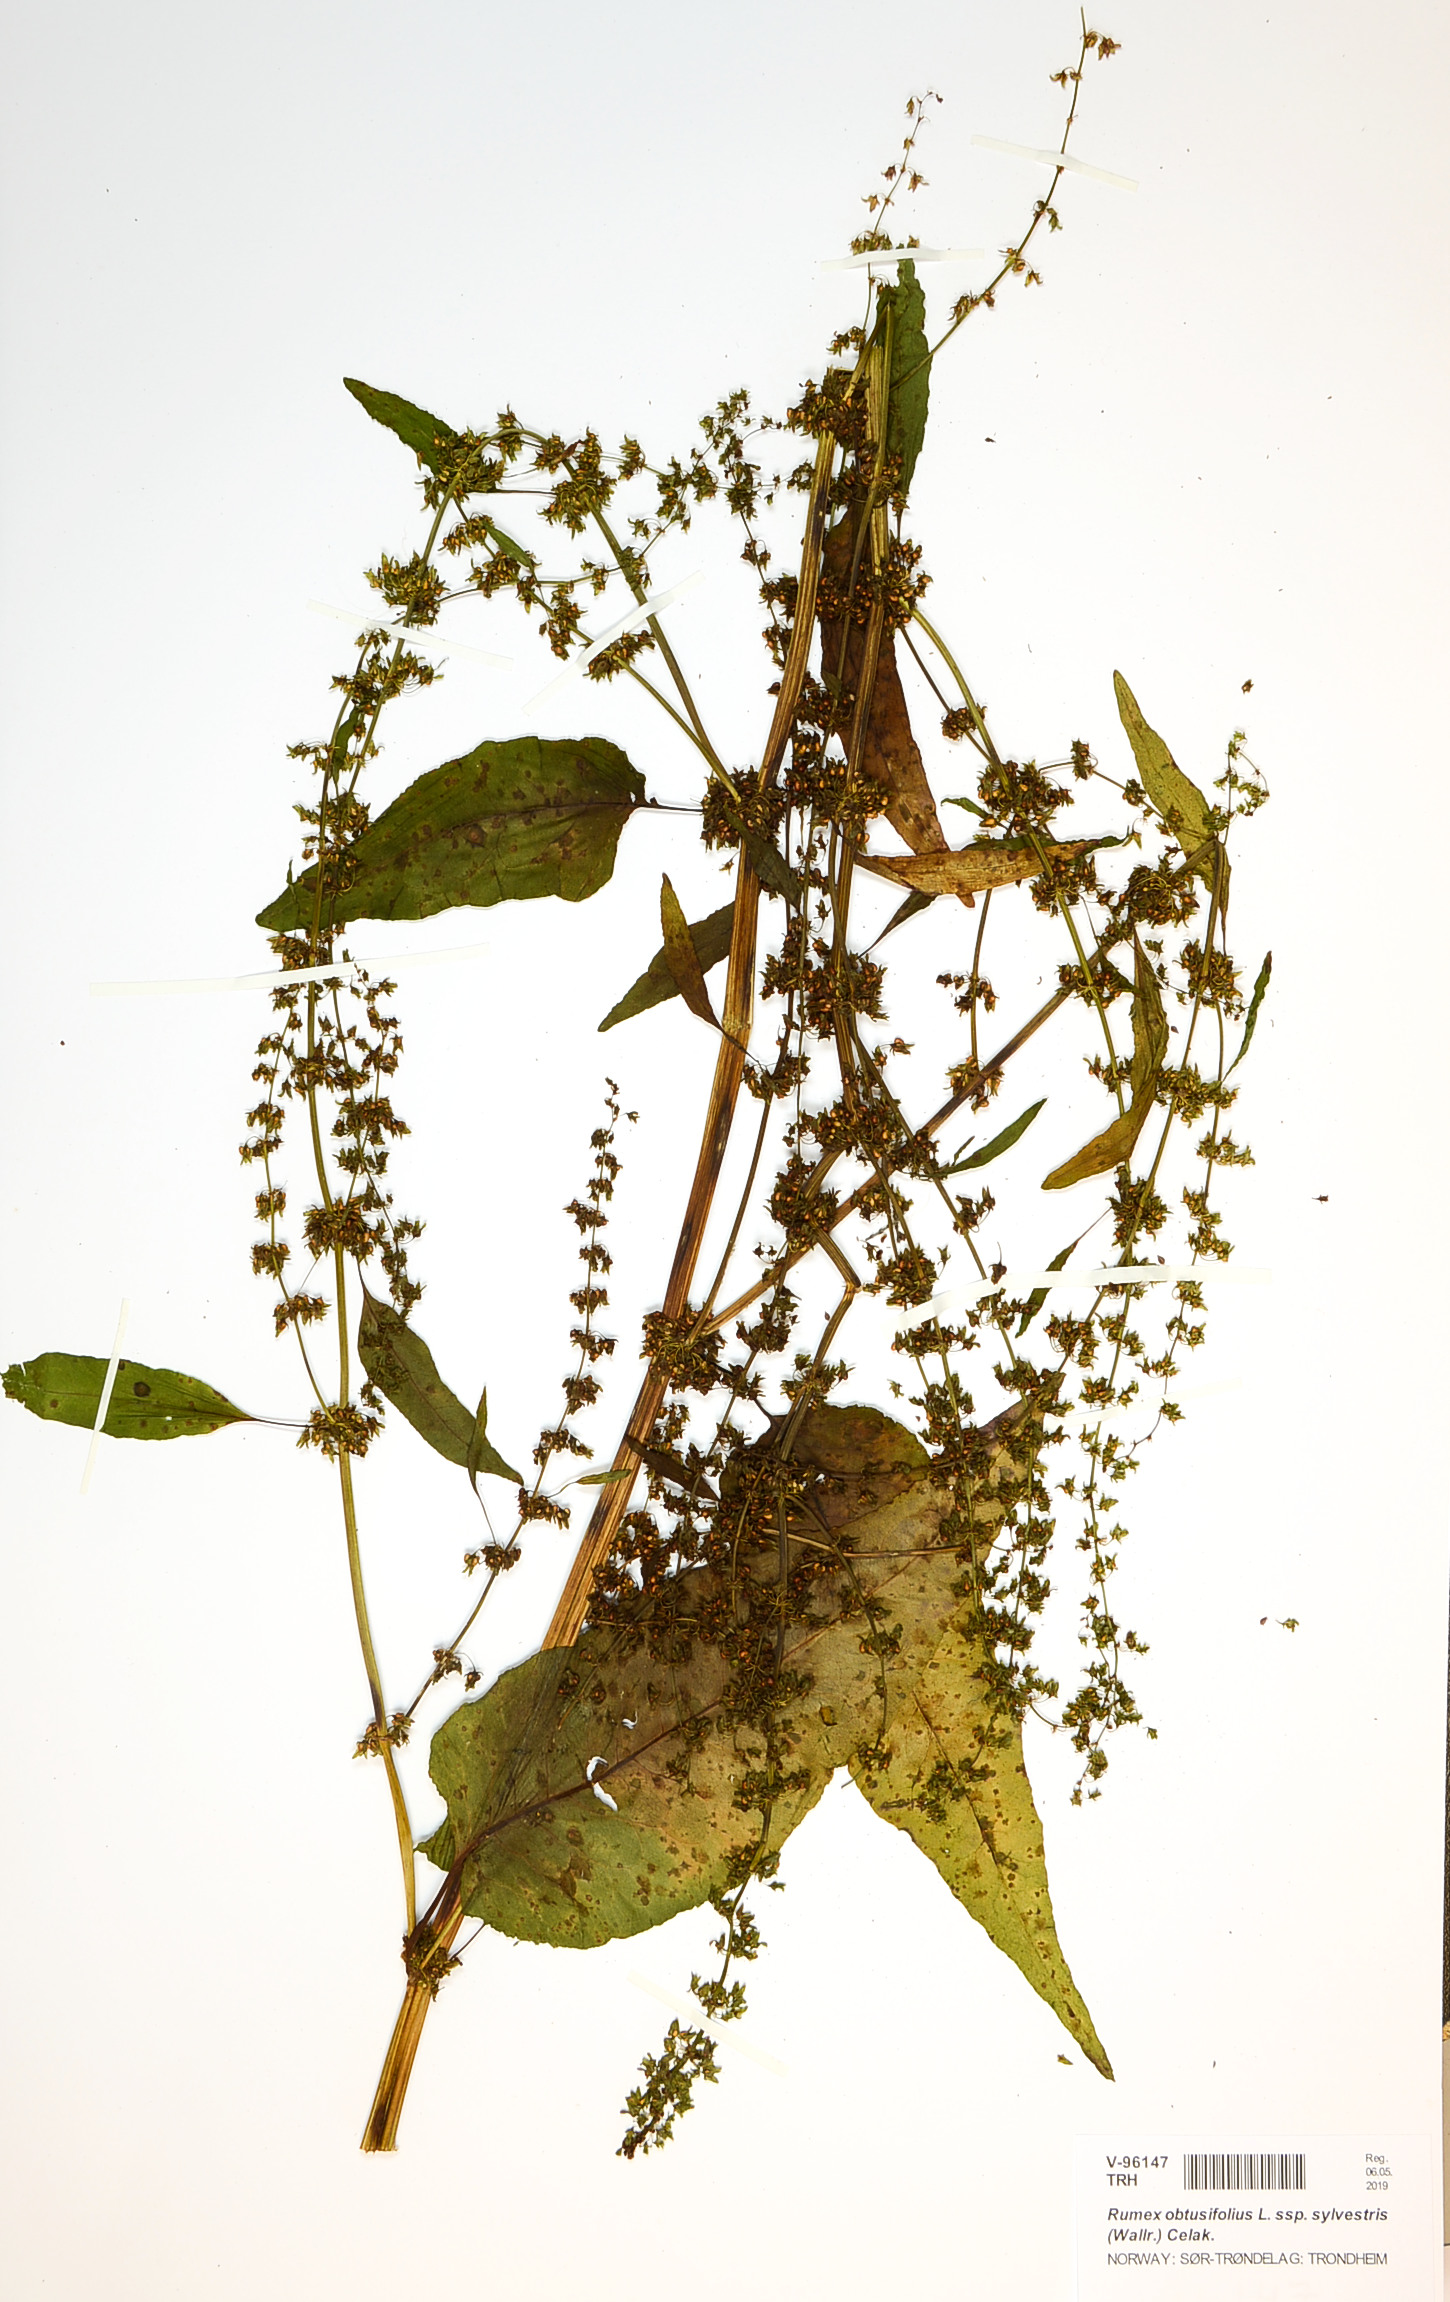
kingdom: Plantae
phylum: Tracheophyta
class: Magnoliopsida
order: Caryophyllales
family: Polygonaceae
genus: Rumex
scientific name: Rumex obtusifolius
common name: Bitter dock
